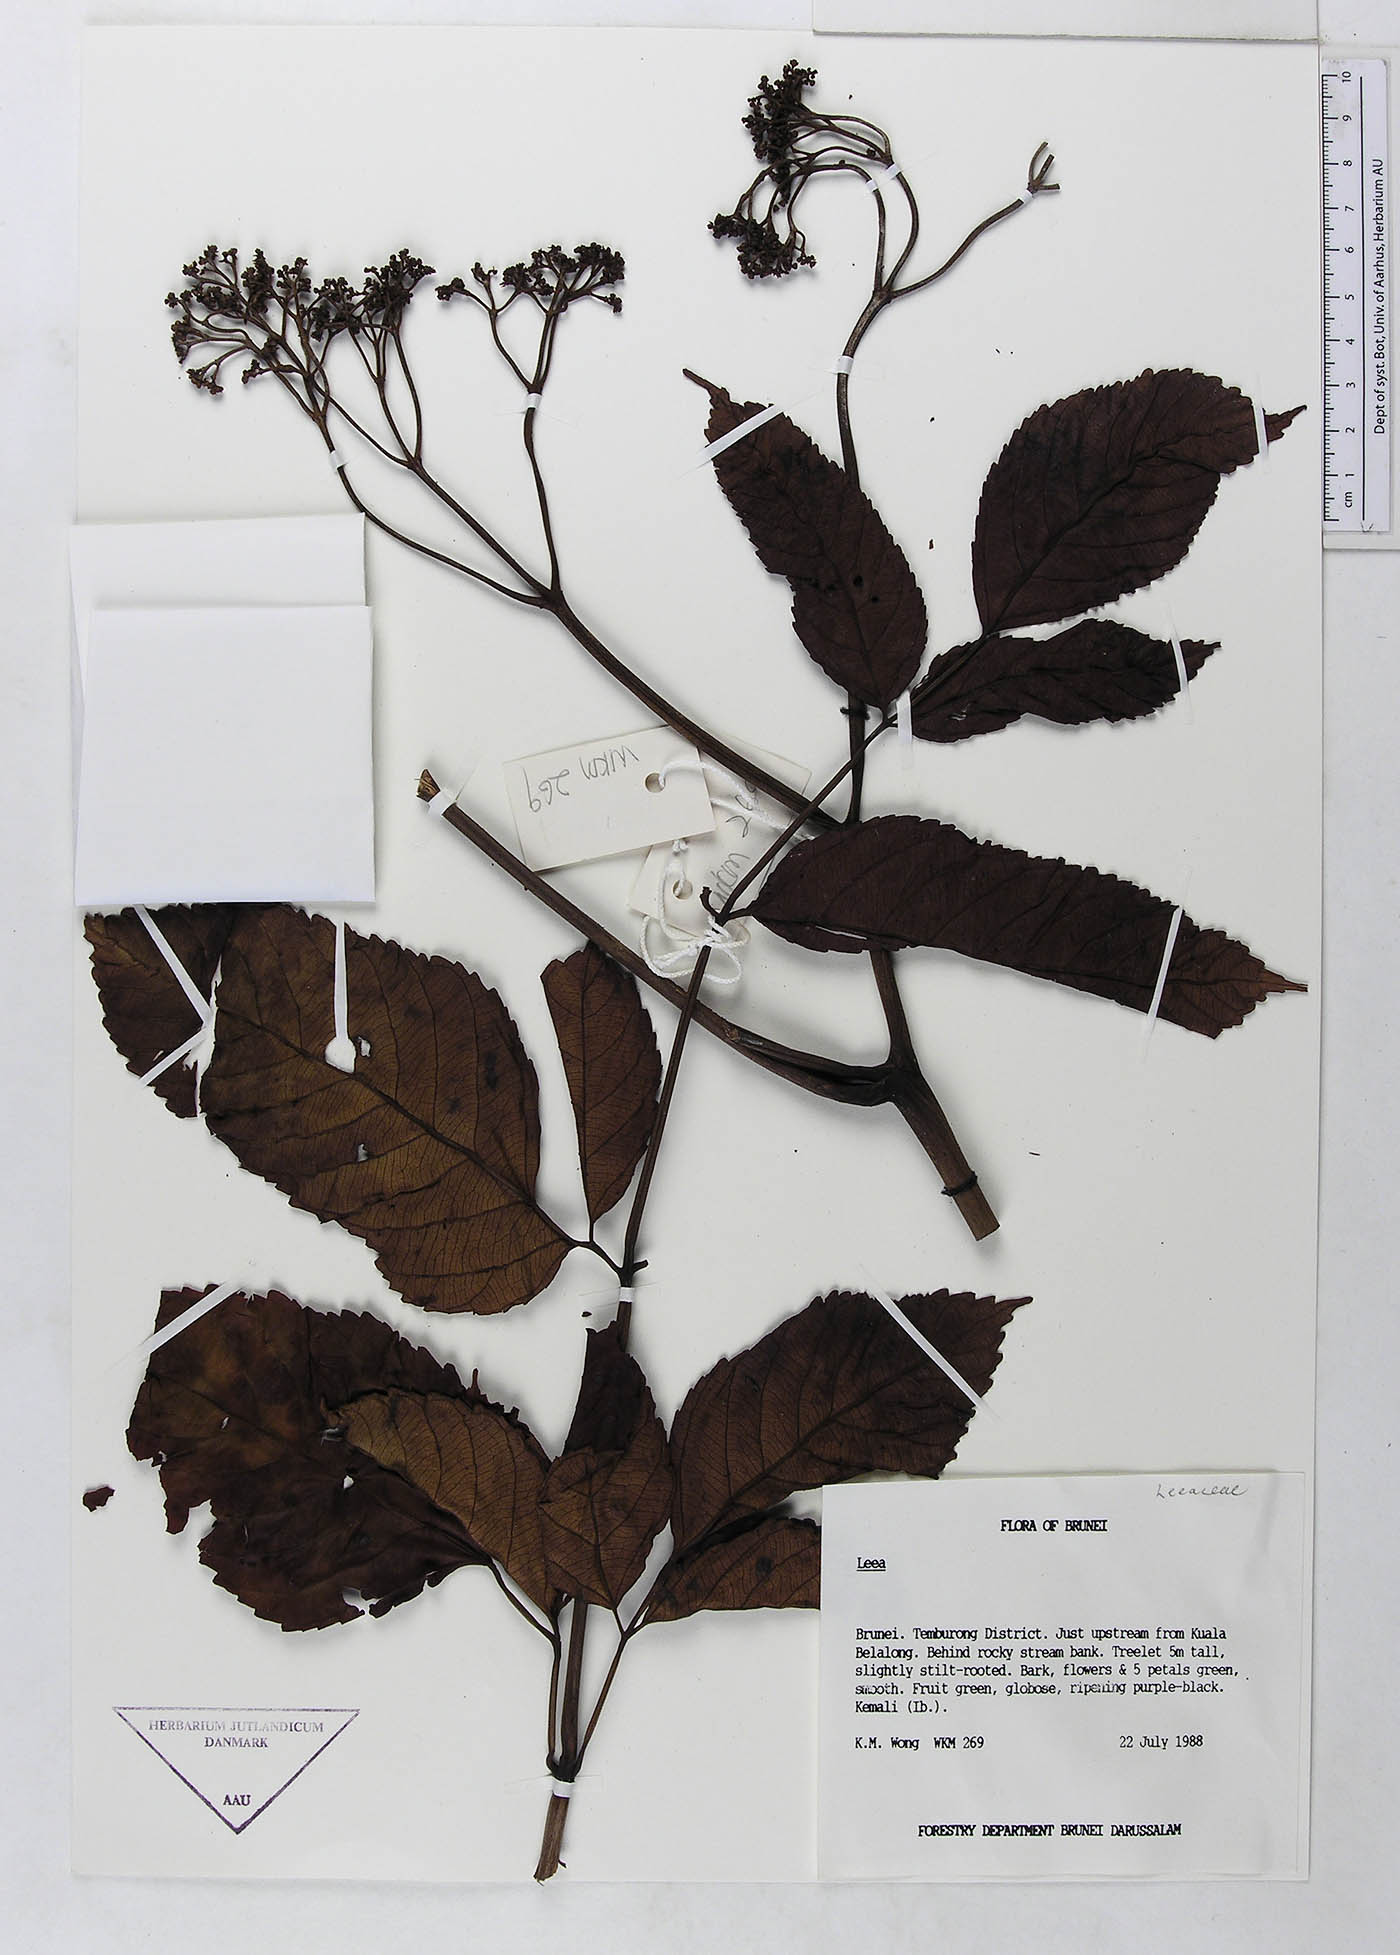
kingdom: Plantae
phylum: Tracheophyta
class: Magnoliopsida
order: Vitales
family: Vitaceae
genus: Leea
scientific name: Leea
